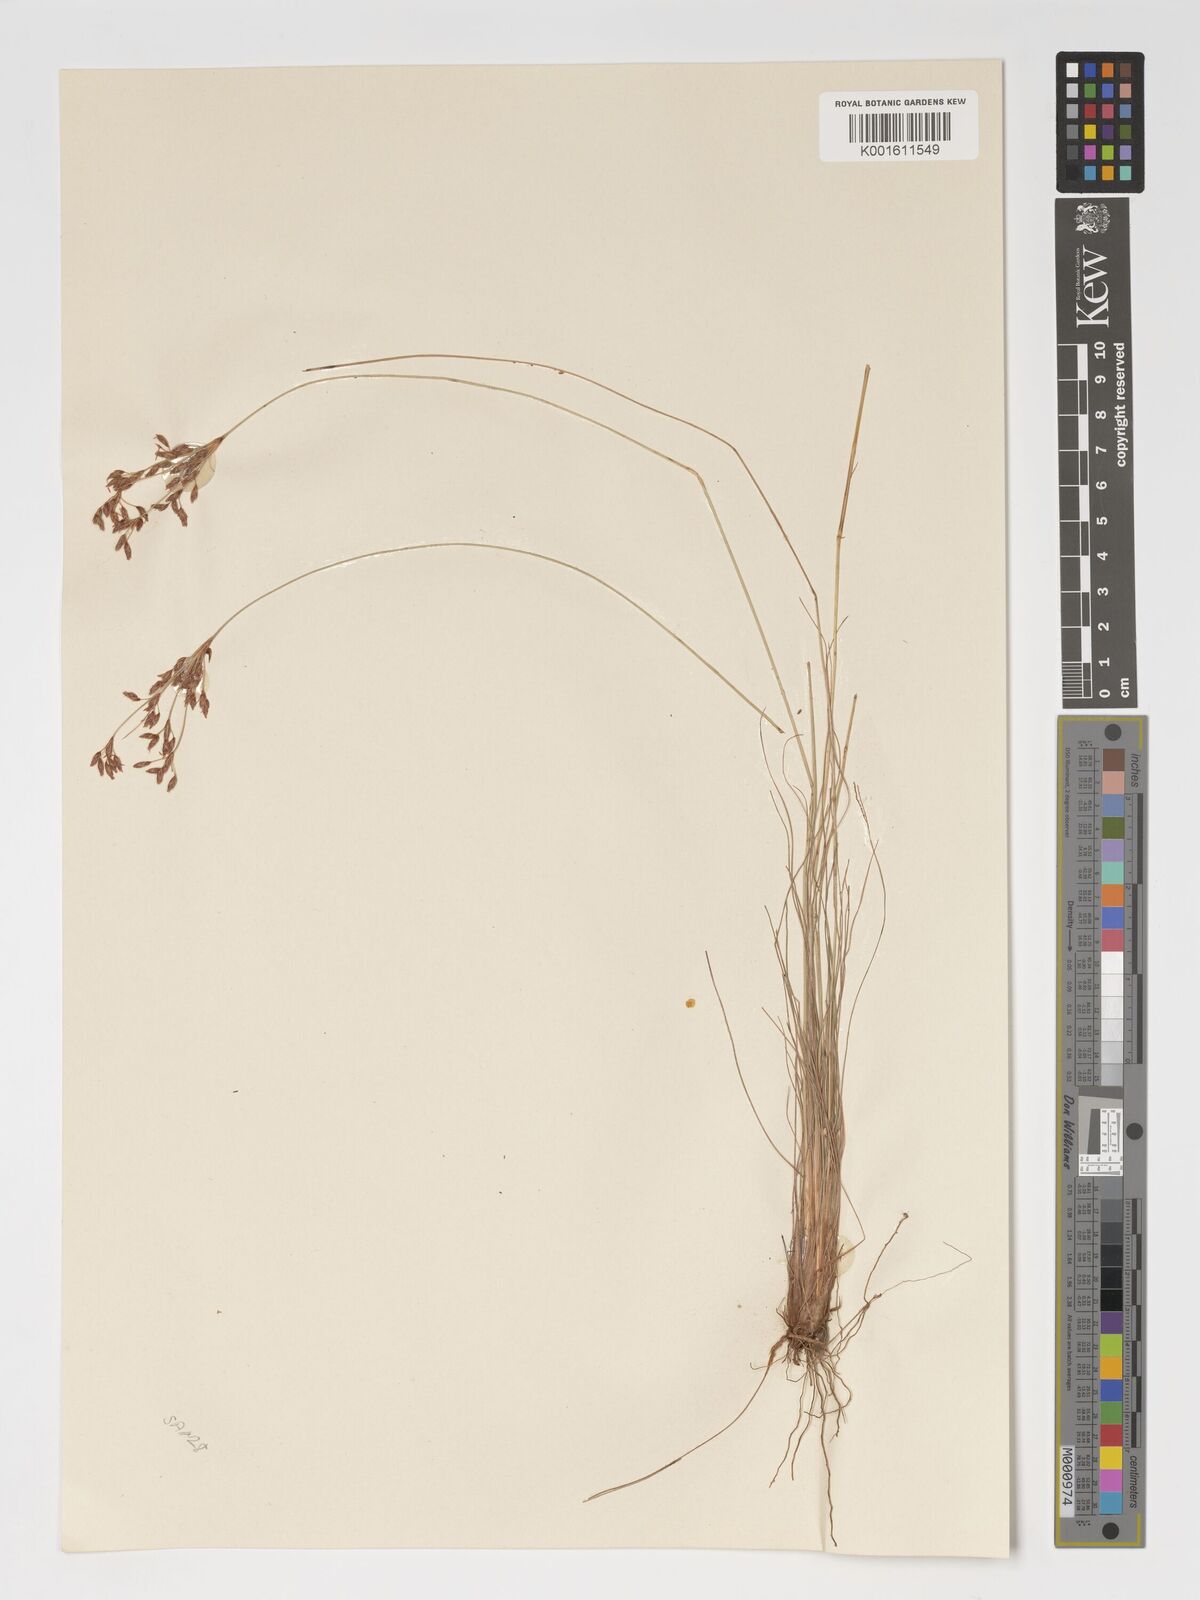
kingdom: Plantae
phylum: Tracheophyta
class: Liliopsida
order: Poales
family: Cyperaceae
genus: Bulbostylis
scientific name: Bulbostylis hispidula
